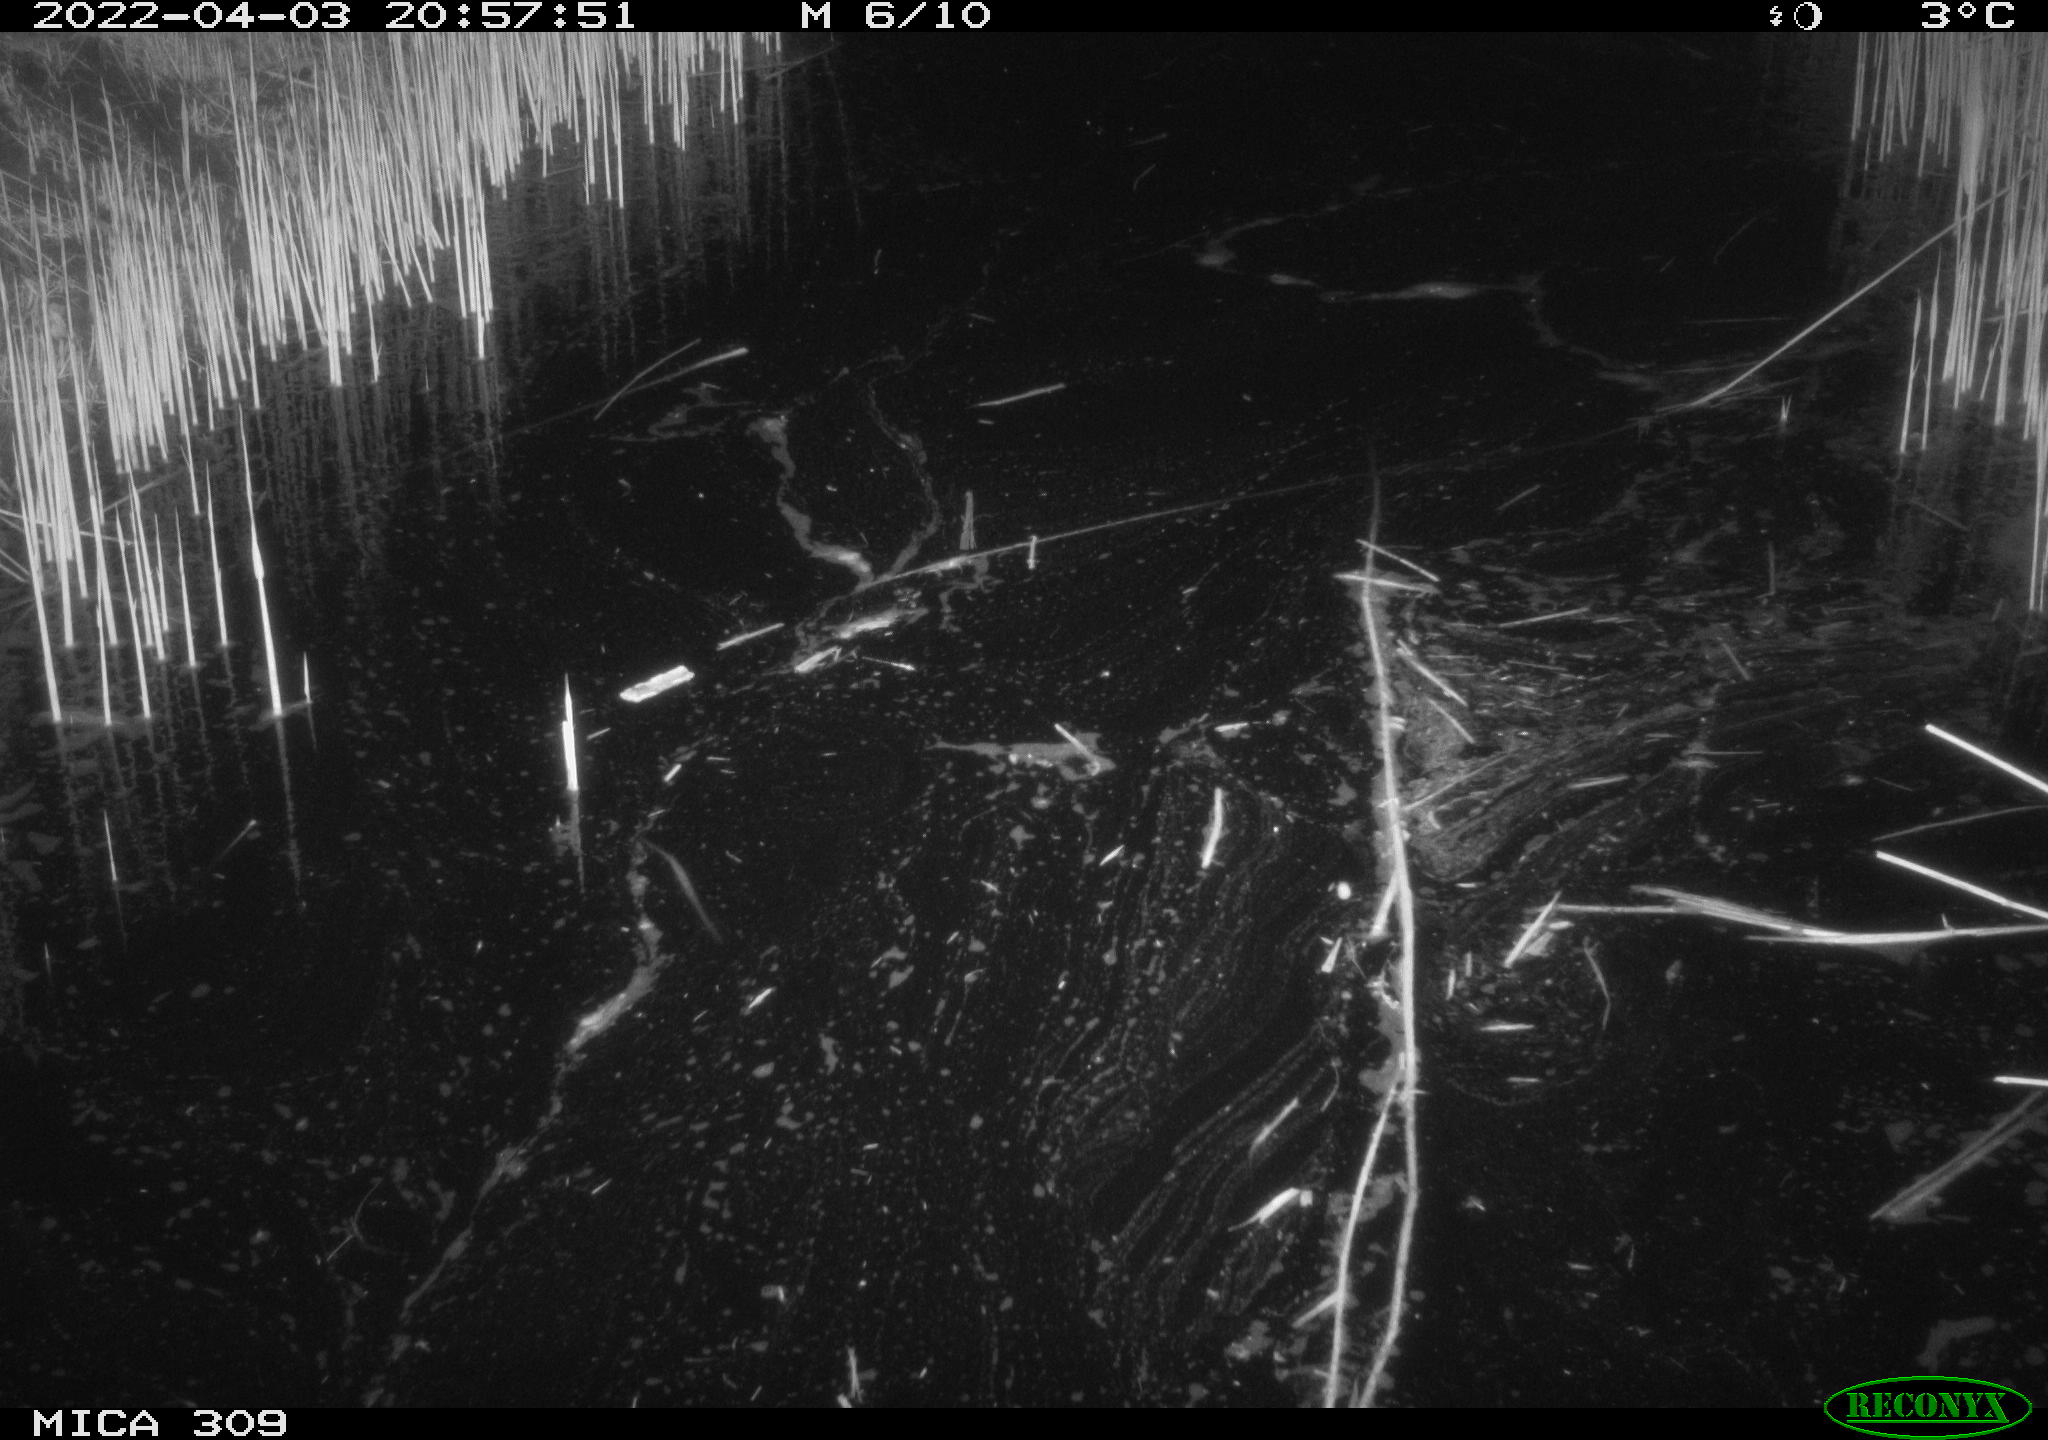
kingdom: Animalia
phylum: Chordata
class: Aves
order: Anseriformes
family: Anatidae
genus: Anas
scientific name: Anas platyrhynchos
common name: Mallard
